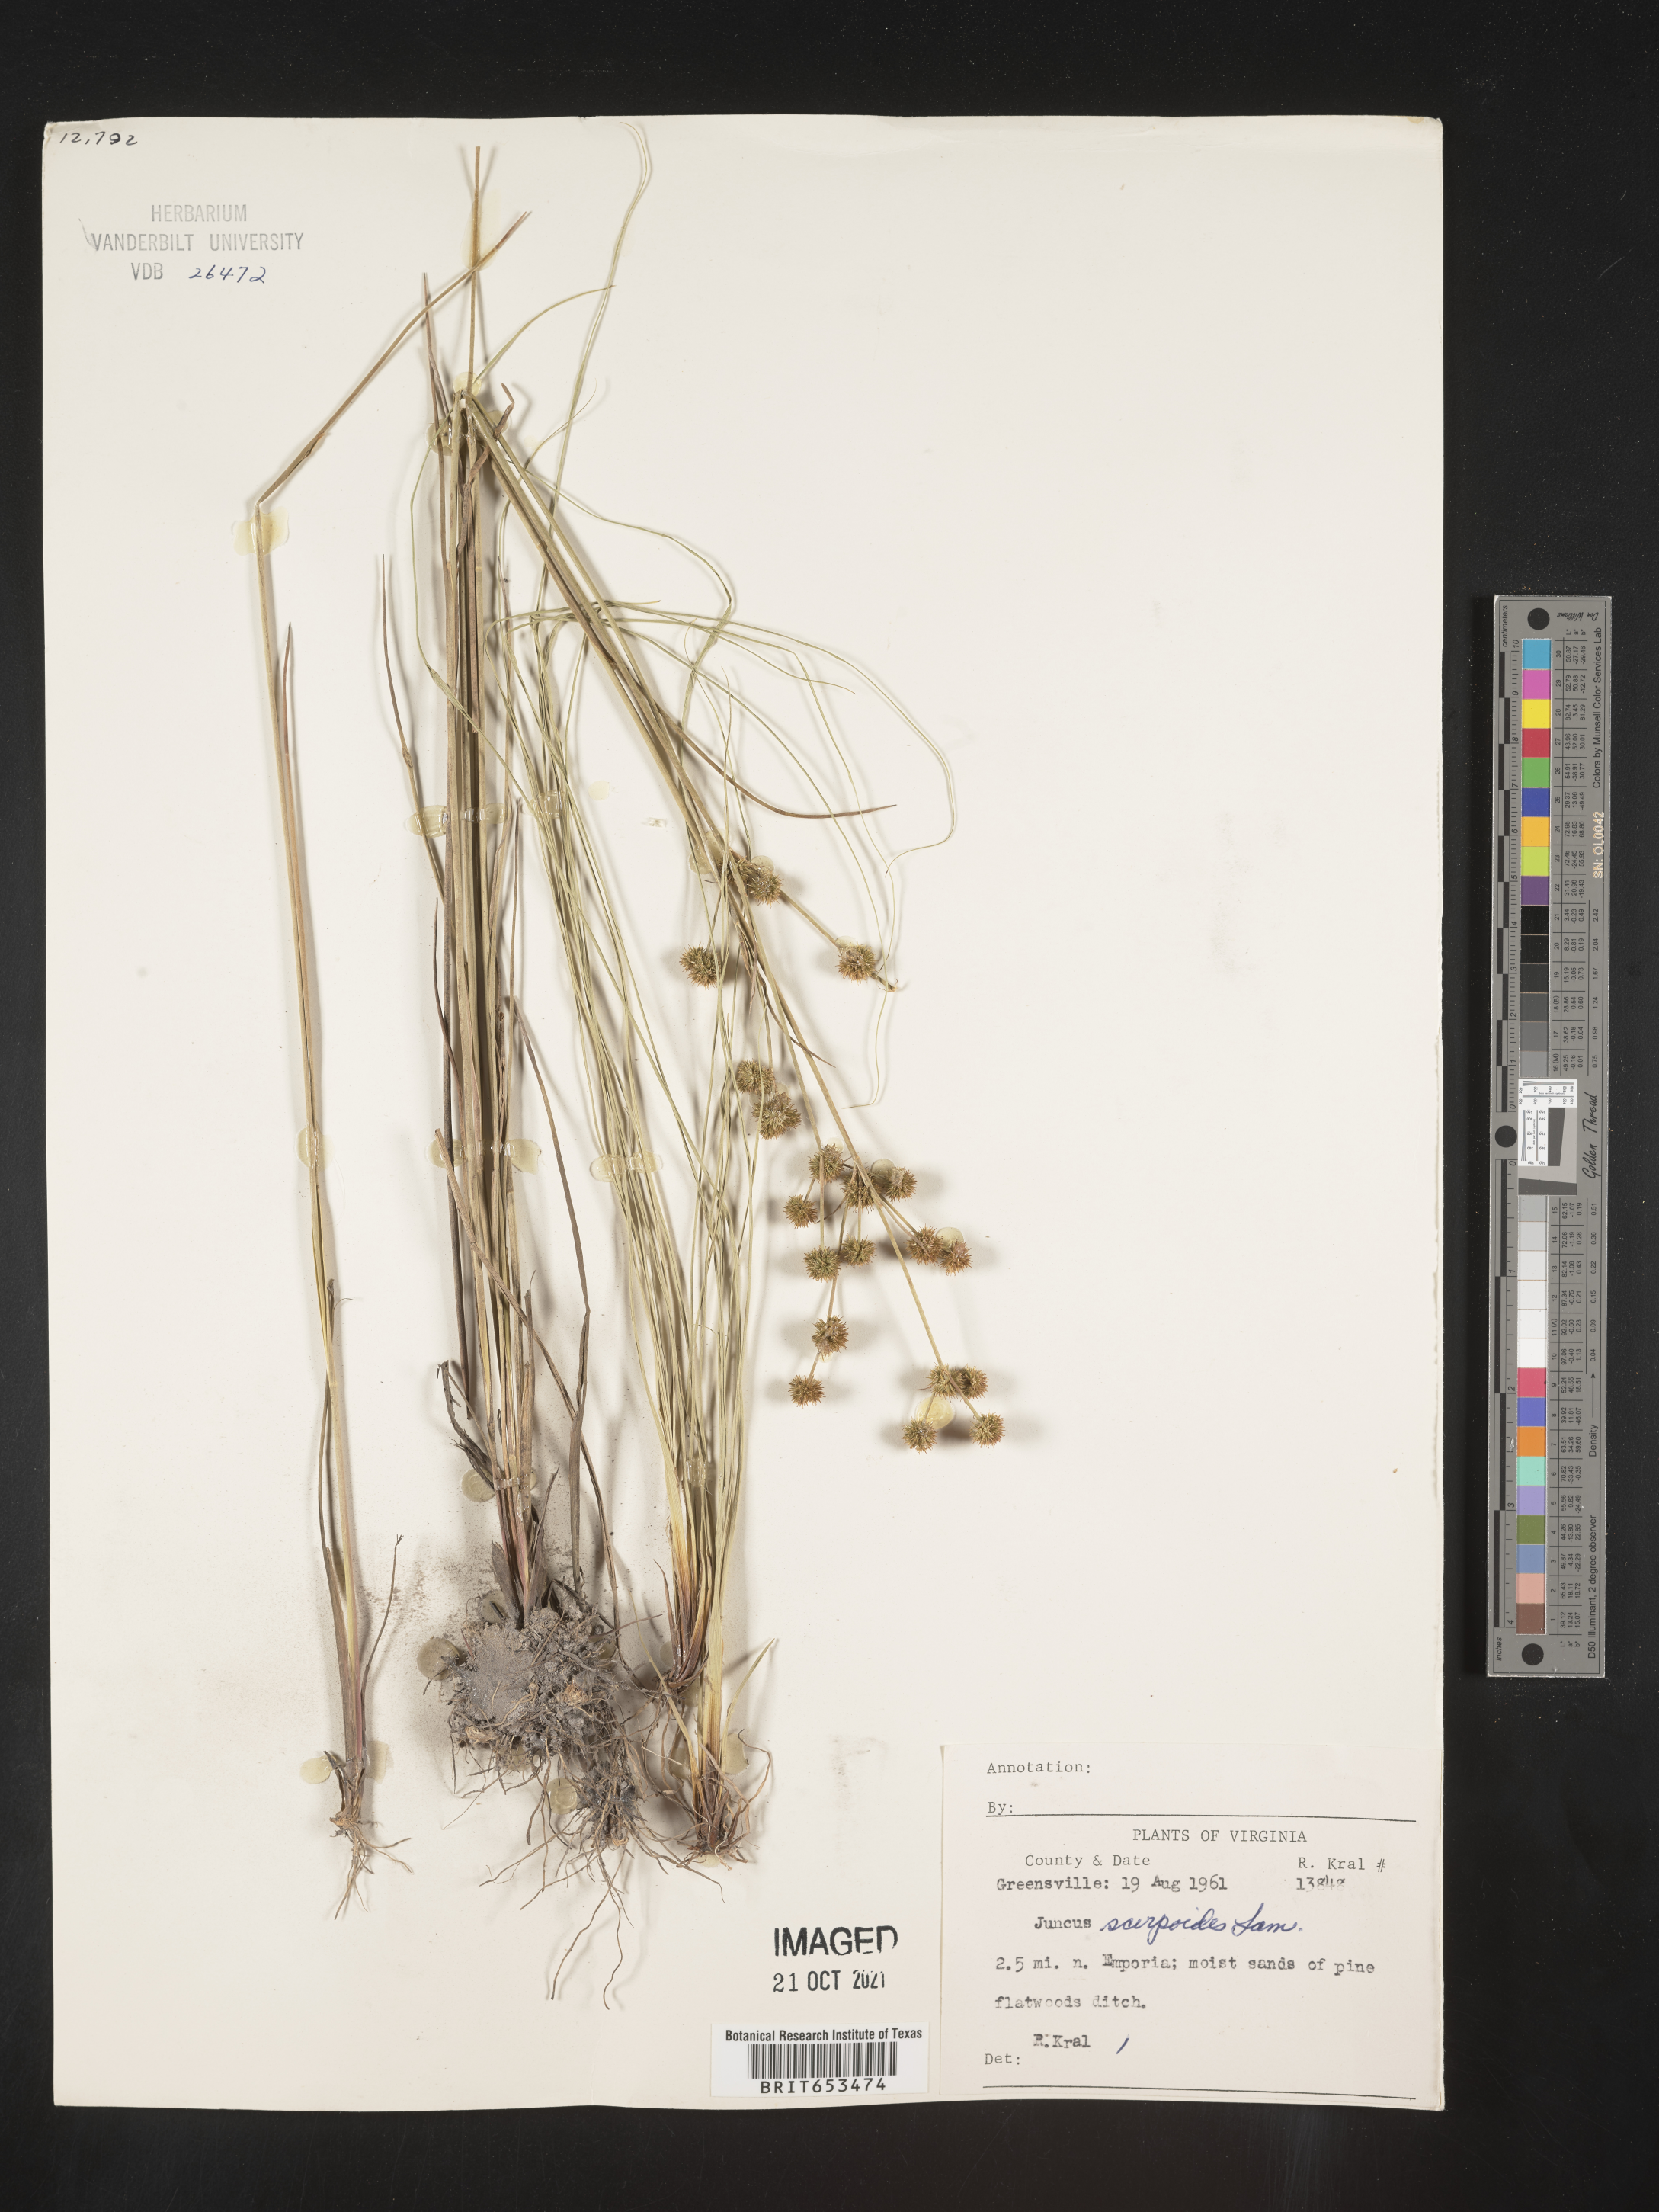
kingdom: Plantae
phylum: Tracheophyta
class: Liliopsida
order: Poales
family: Juncaceae
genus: Juncus
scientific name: Juncus scirpoides
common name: Needlepod rush
